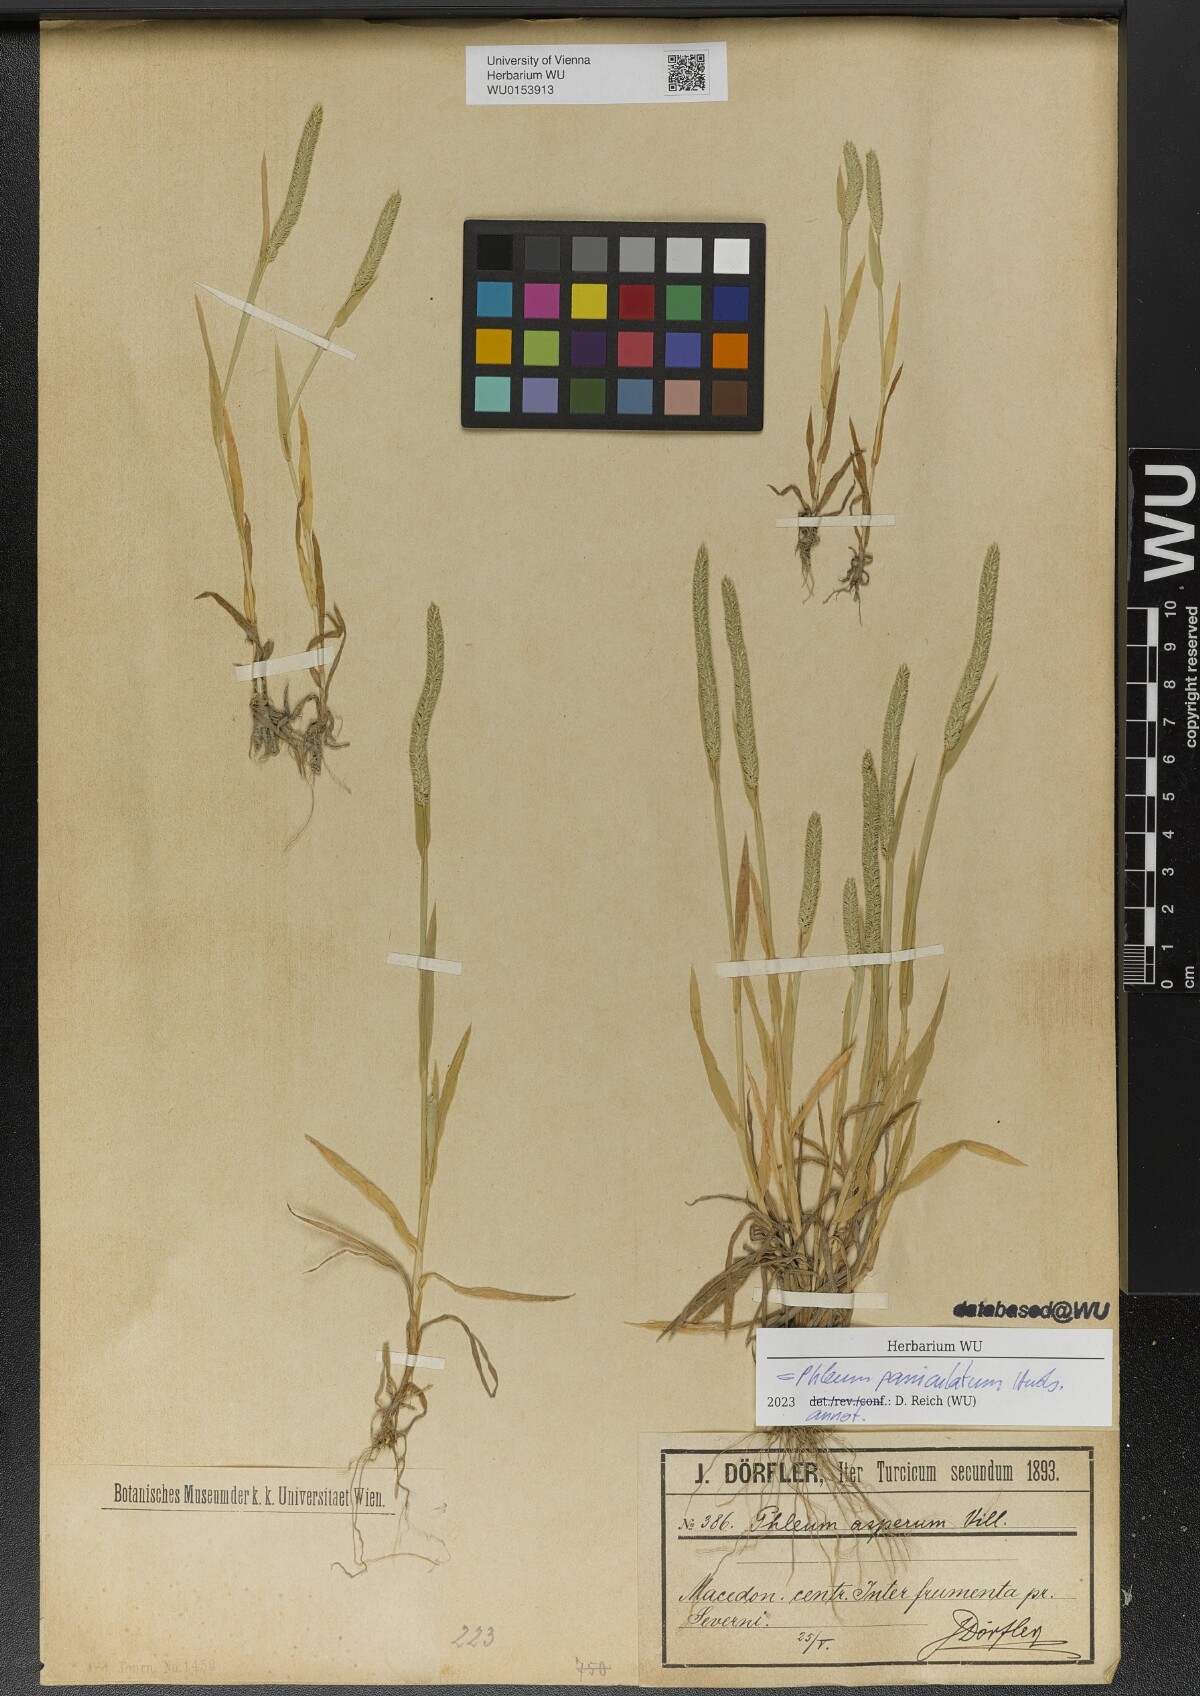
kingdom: Plantae
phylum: Tracheophyta
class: Liliopsida
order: Poales
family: Poaceae
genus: Phleum
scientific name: Phleum paniculatum
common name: British timothy
